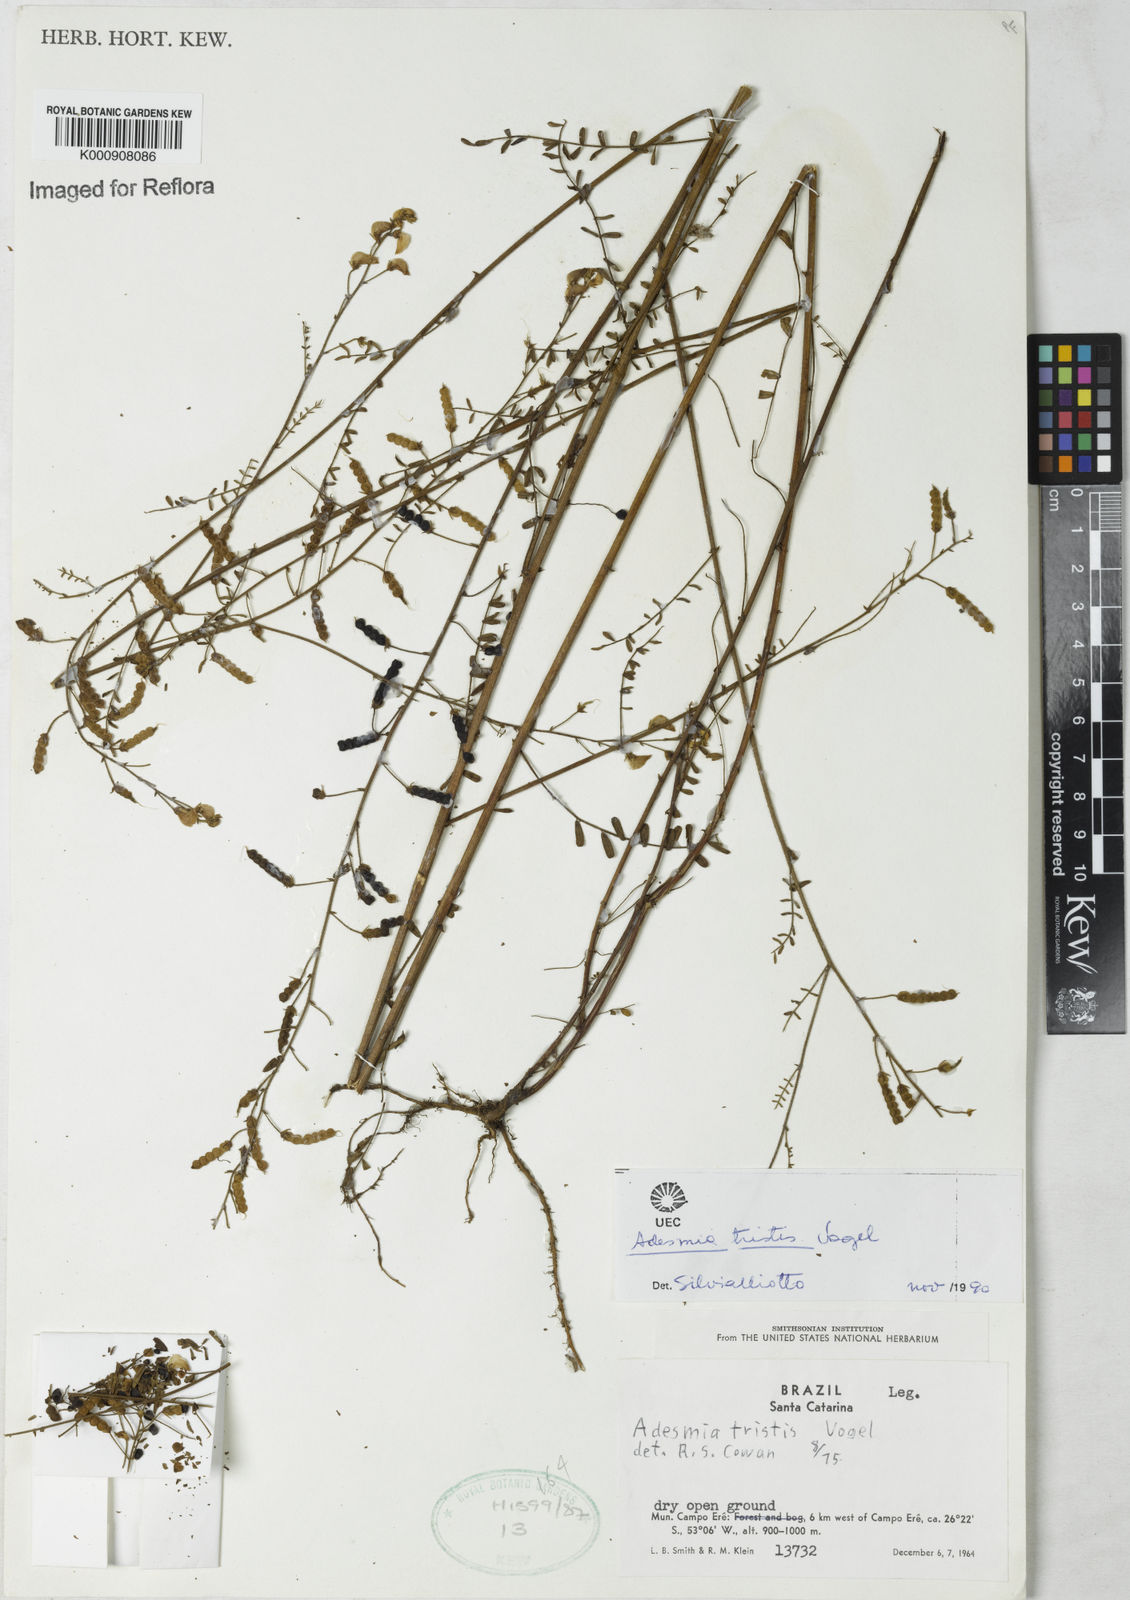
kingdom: Plantae
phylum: Tracheophyta
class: Magnoliopsida
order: Fabales
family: Fabaceae
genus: Adesmia
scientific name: Adesmia tristis
